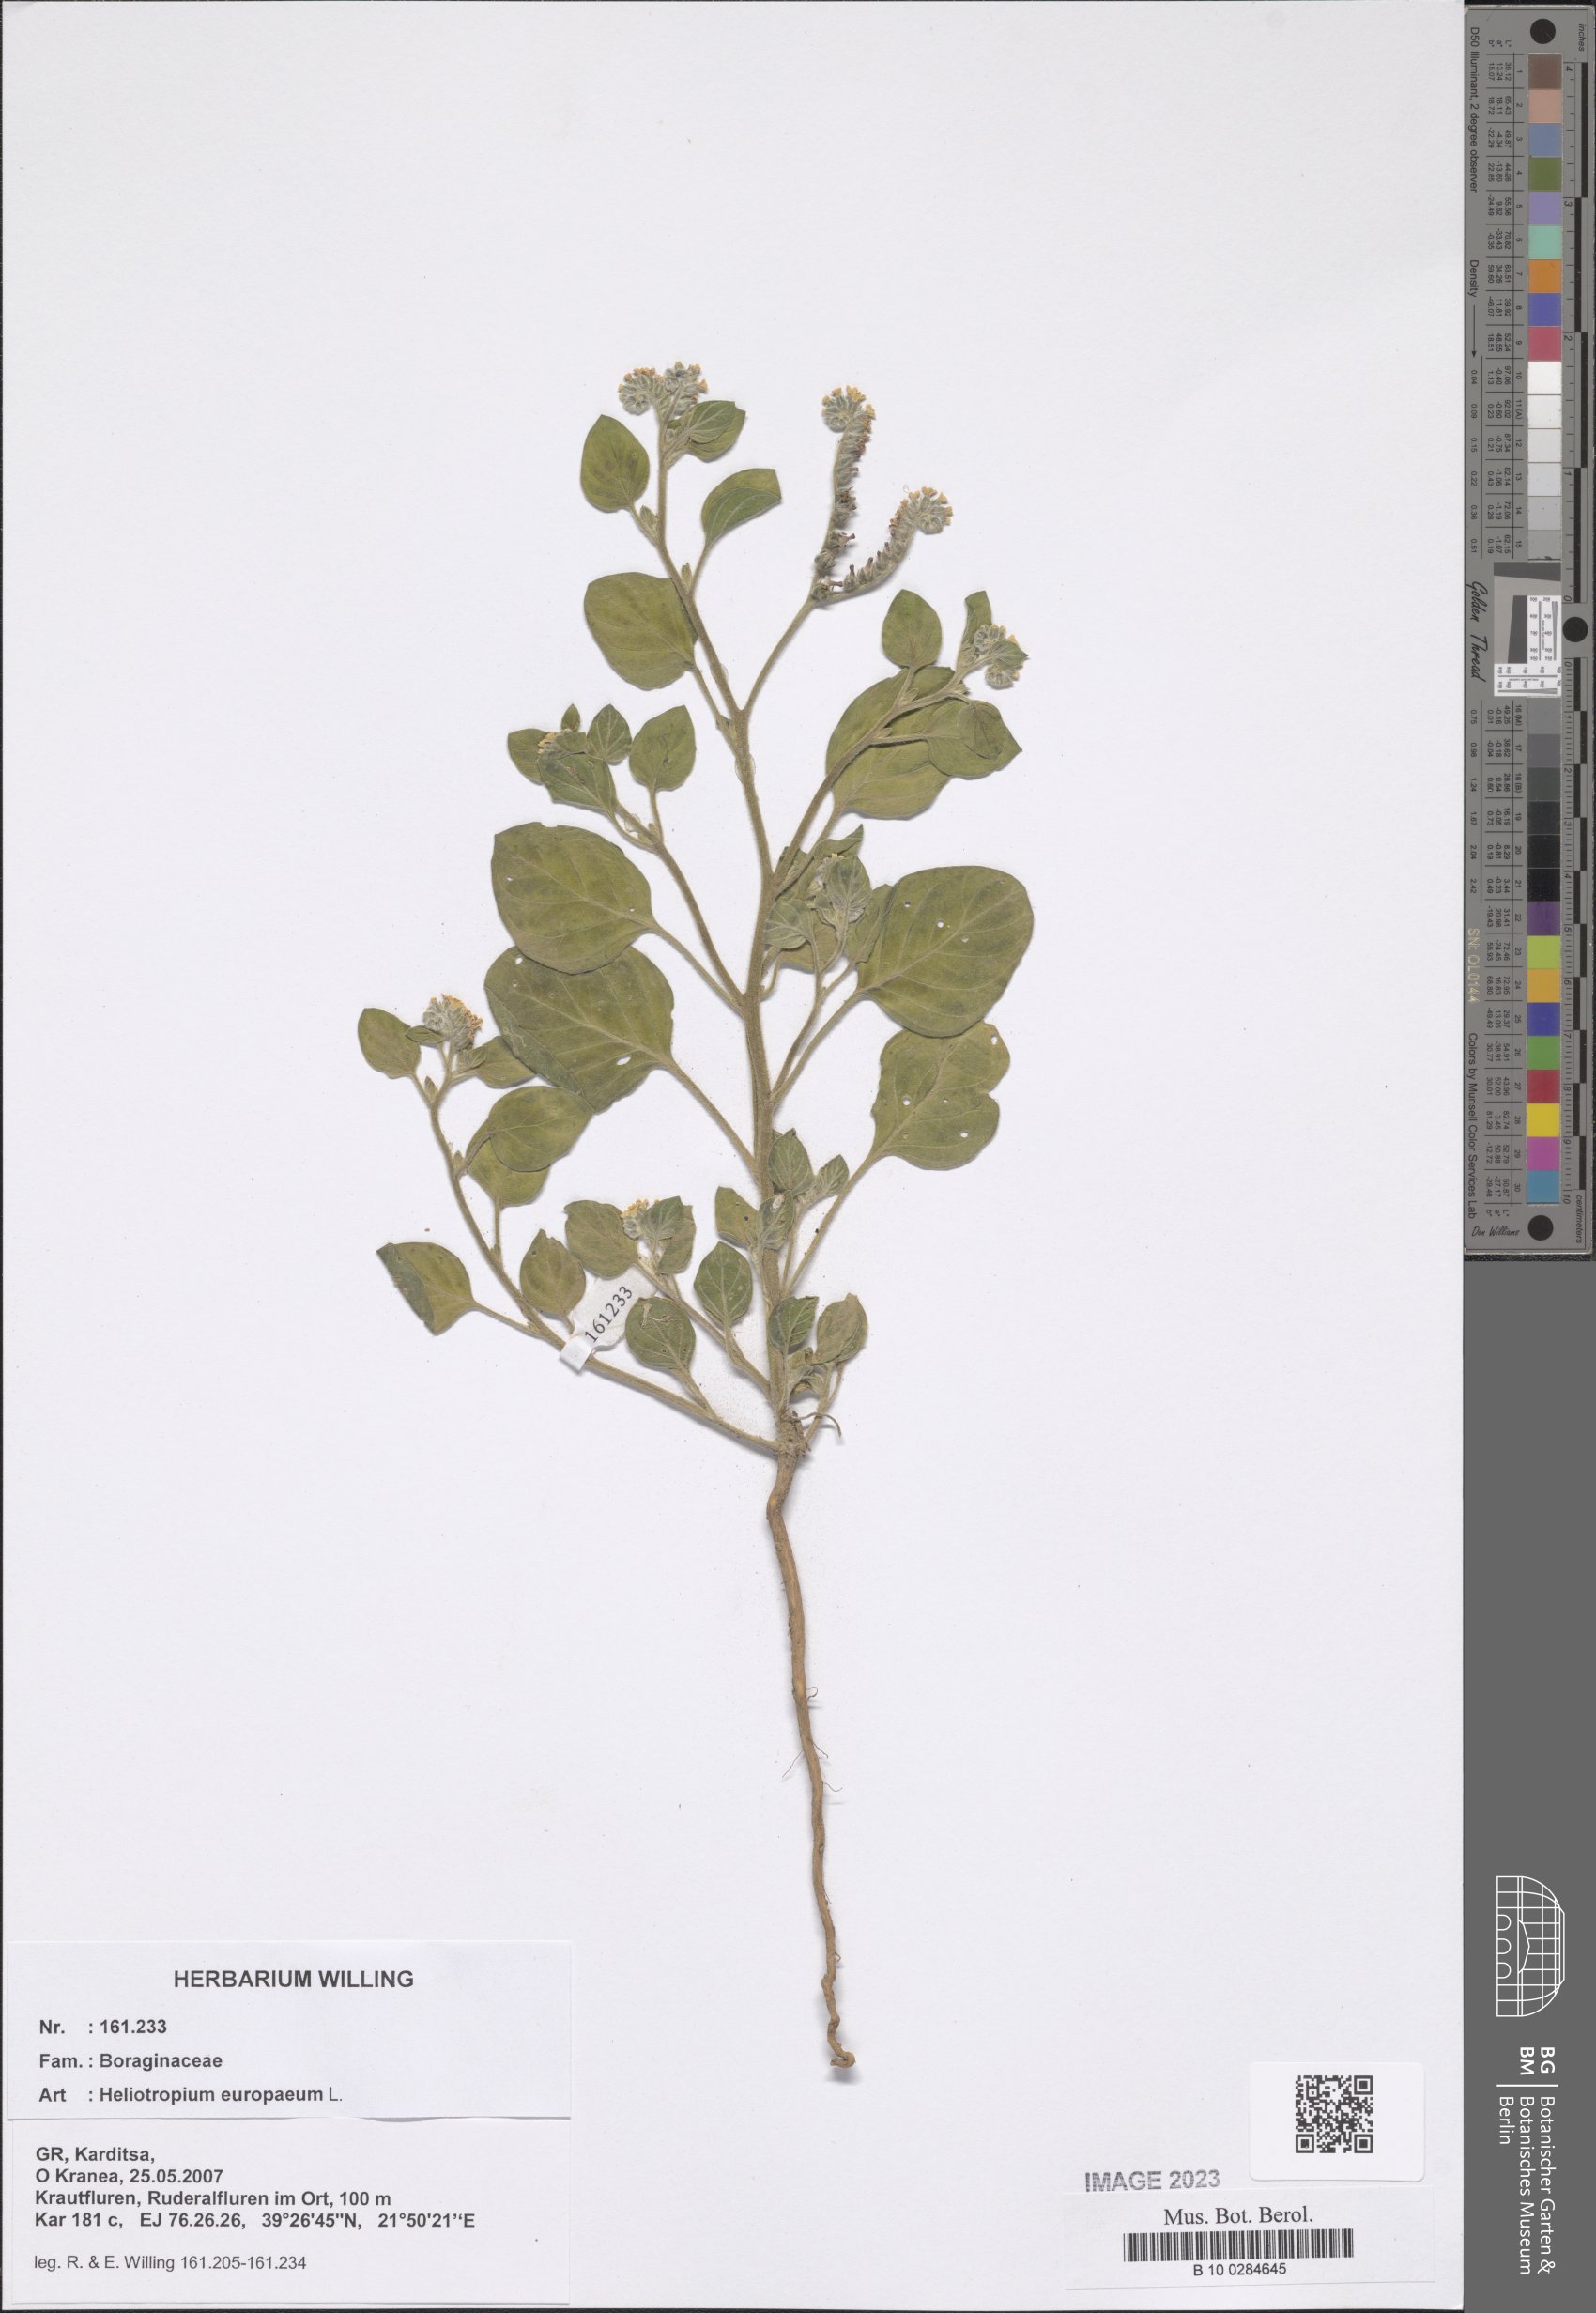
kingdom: Plantae
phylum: Tracheophyta
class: Magnoliopsida
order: Boraginales
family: Heliotropiaceae
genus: Heliotropium
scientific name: Heliotropium europaeum
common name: European heliotrope
